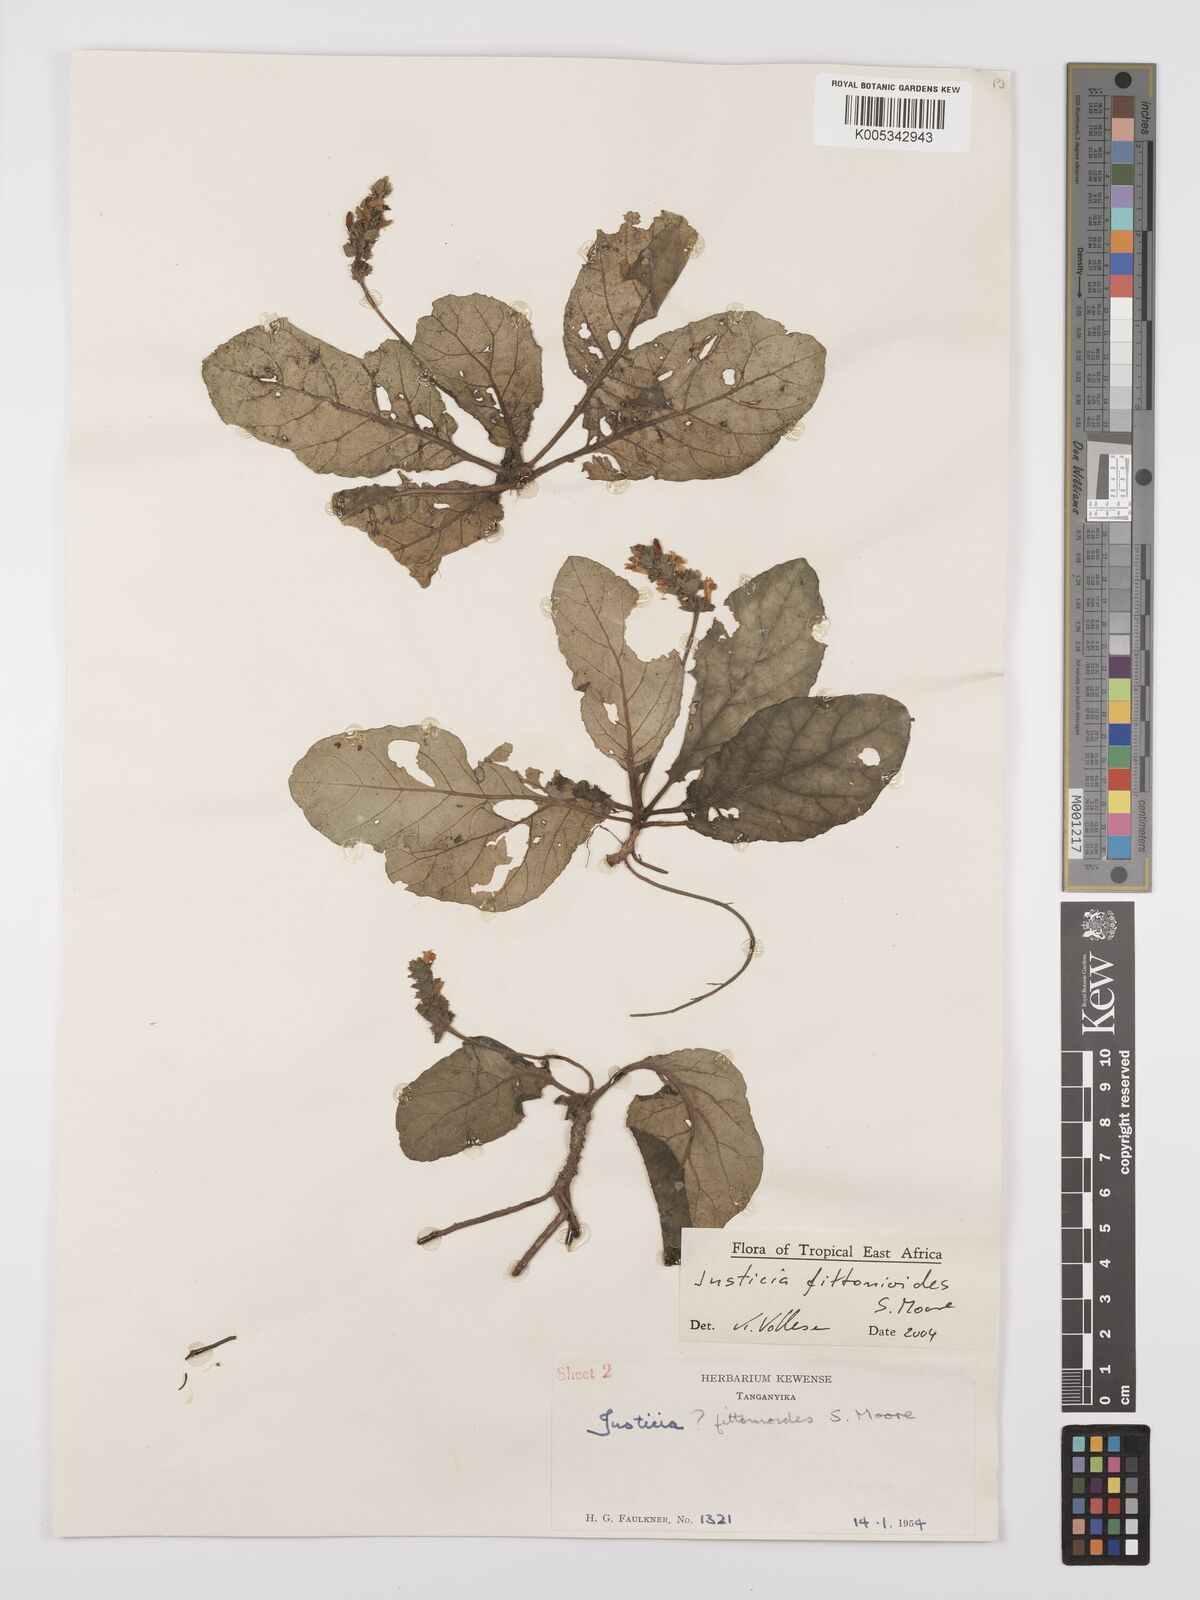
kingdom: Plantae
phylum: Tracheophyta
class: Magnoliopsida
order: Lamiales
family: Acanthaceae
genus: Justicia
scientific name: Justicia
